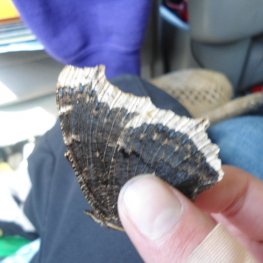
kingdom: Animalia
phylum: Arthropoda
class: Insecta
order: Lepidoptera
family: Nymphalidae
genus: Nymphalis
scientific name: Nymphalis antiopa
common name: Mourning Cloak
